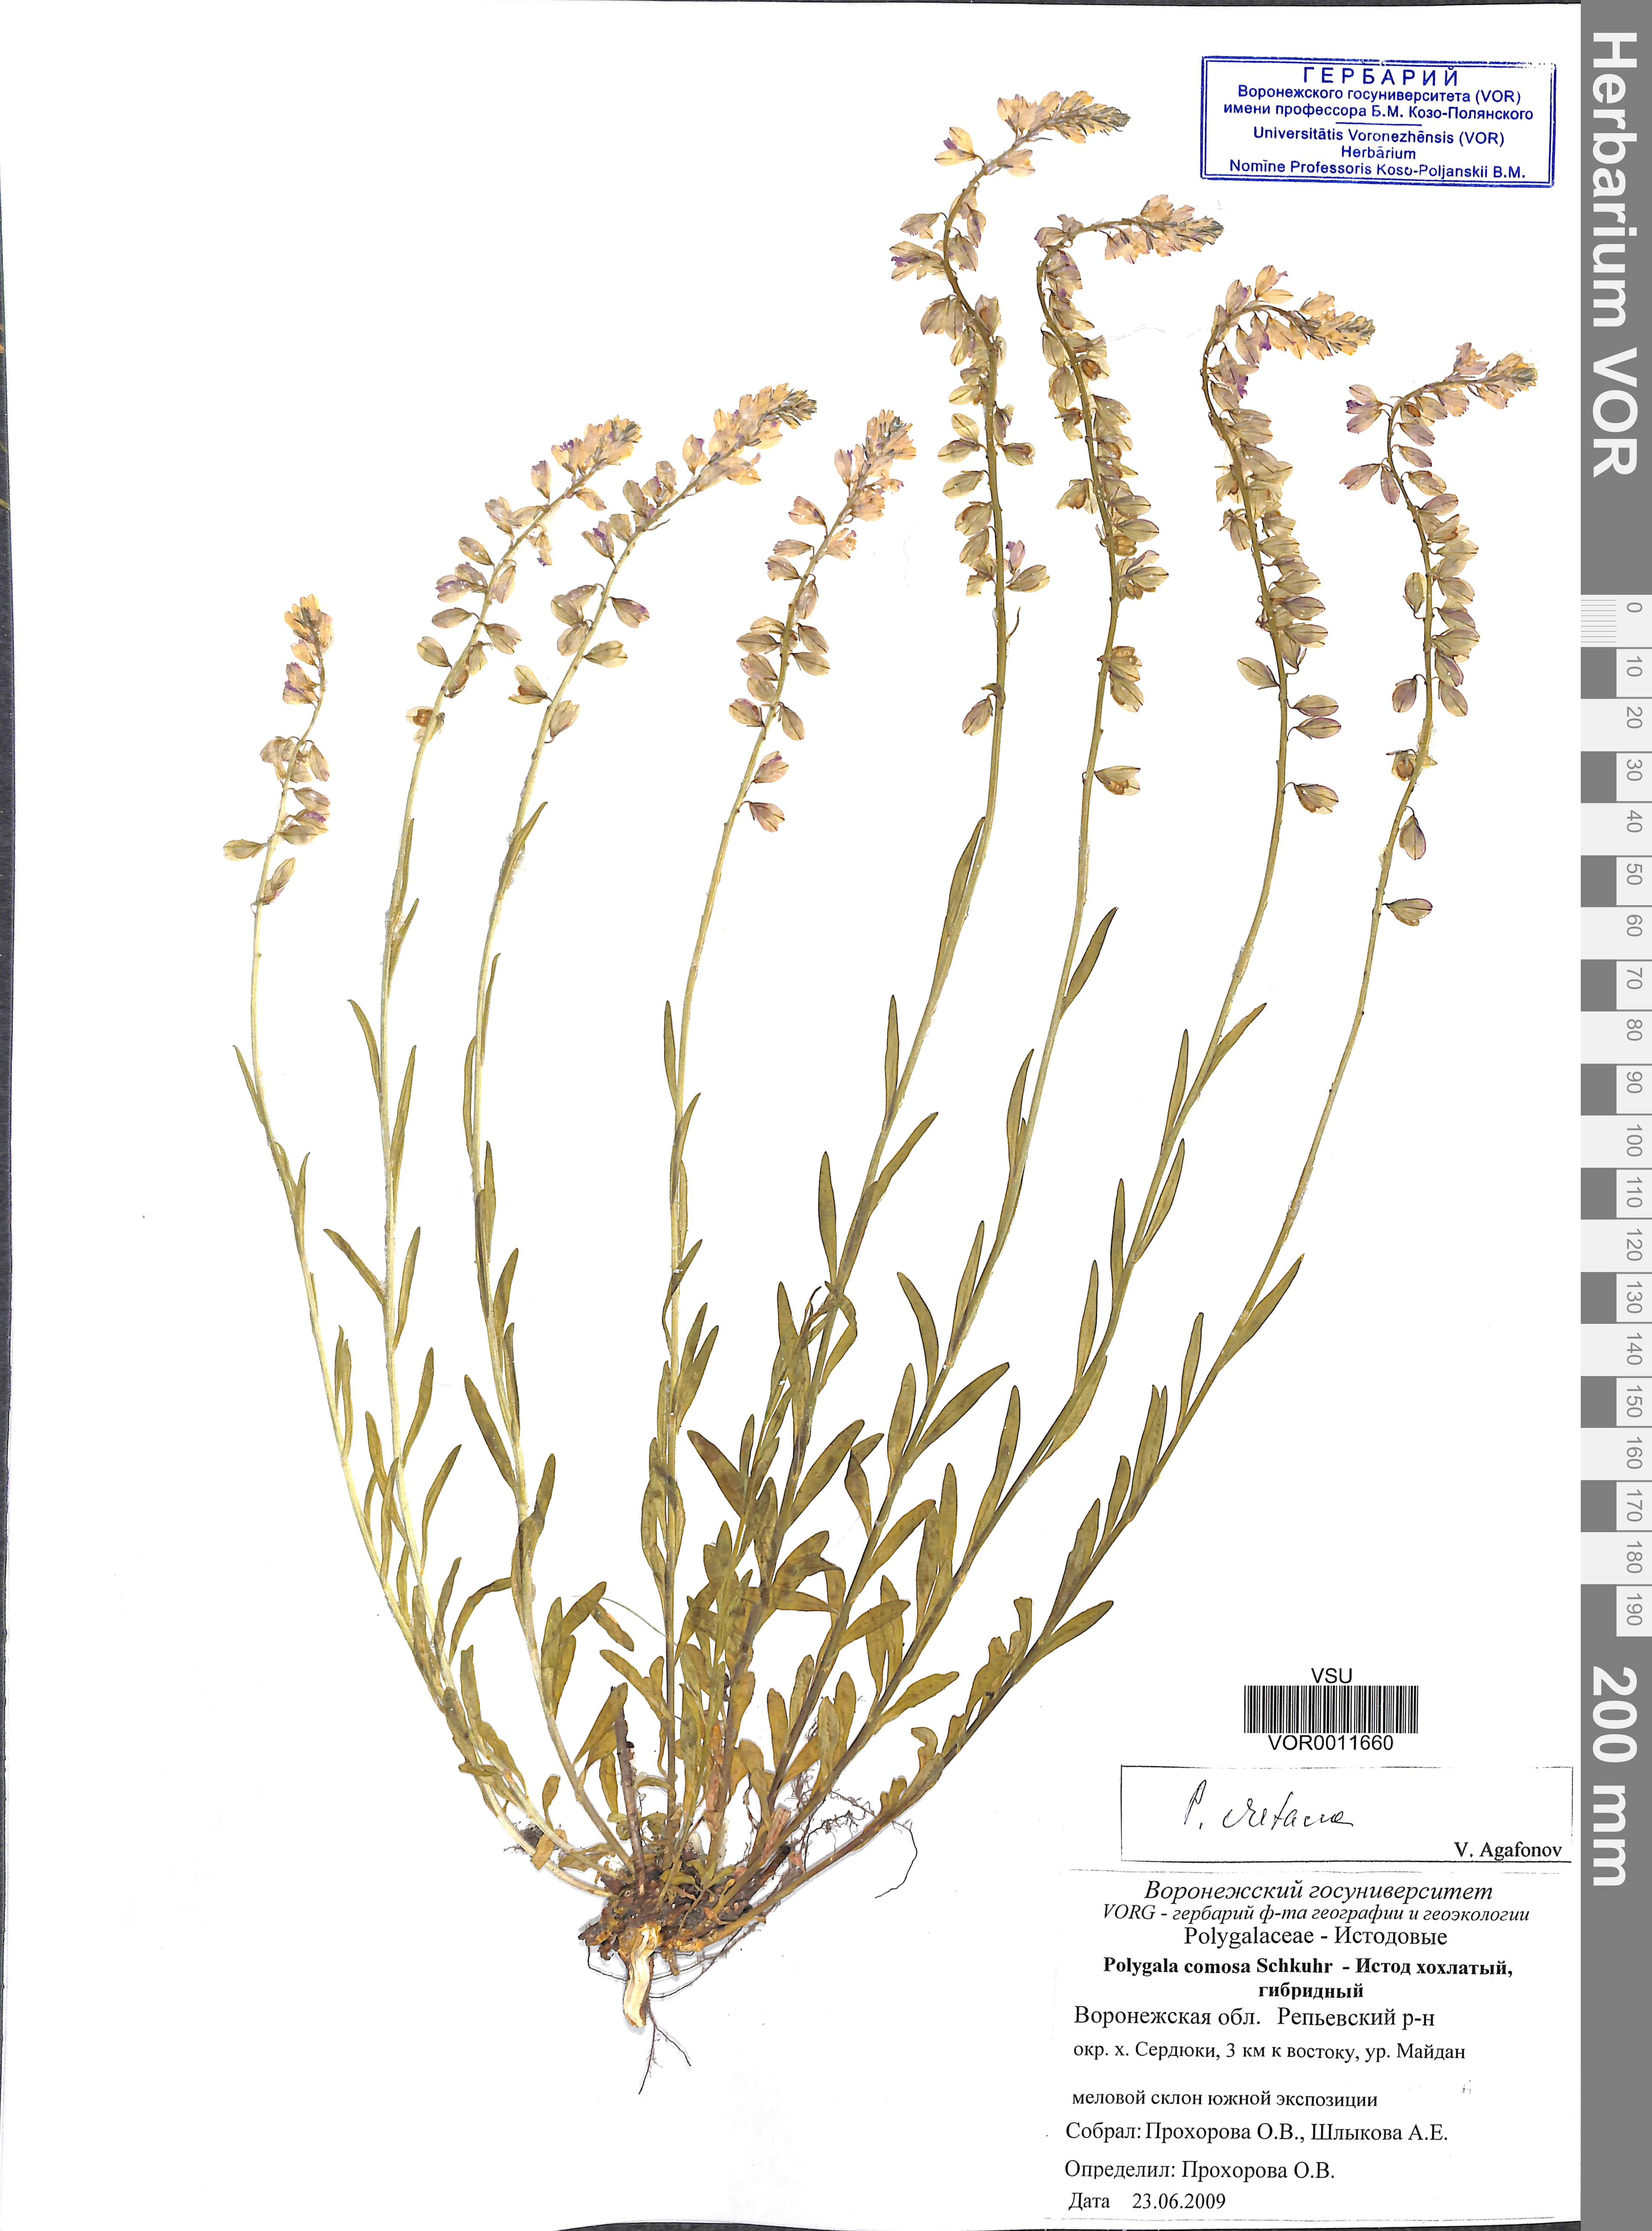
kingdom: Plantae
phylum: Tracheophyta
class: Magnoliopsida
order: Fabales
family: Polygalaceae
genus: Polygala
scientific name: Polygala nicaeensis
